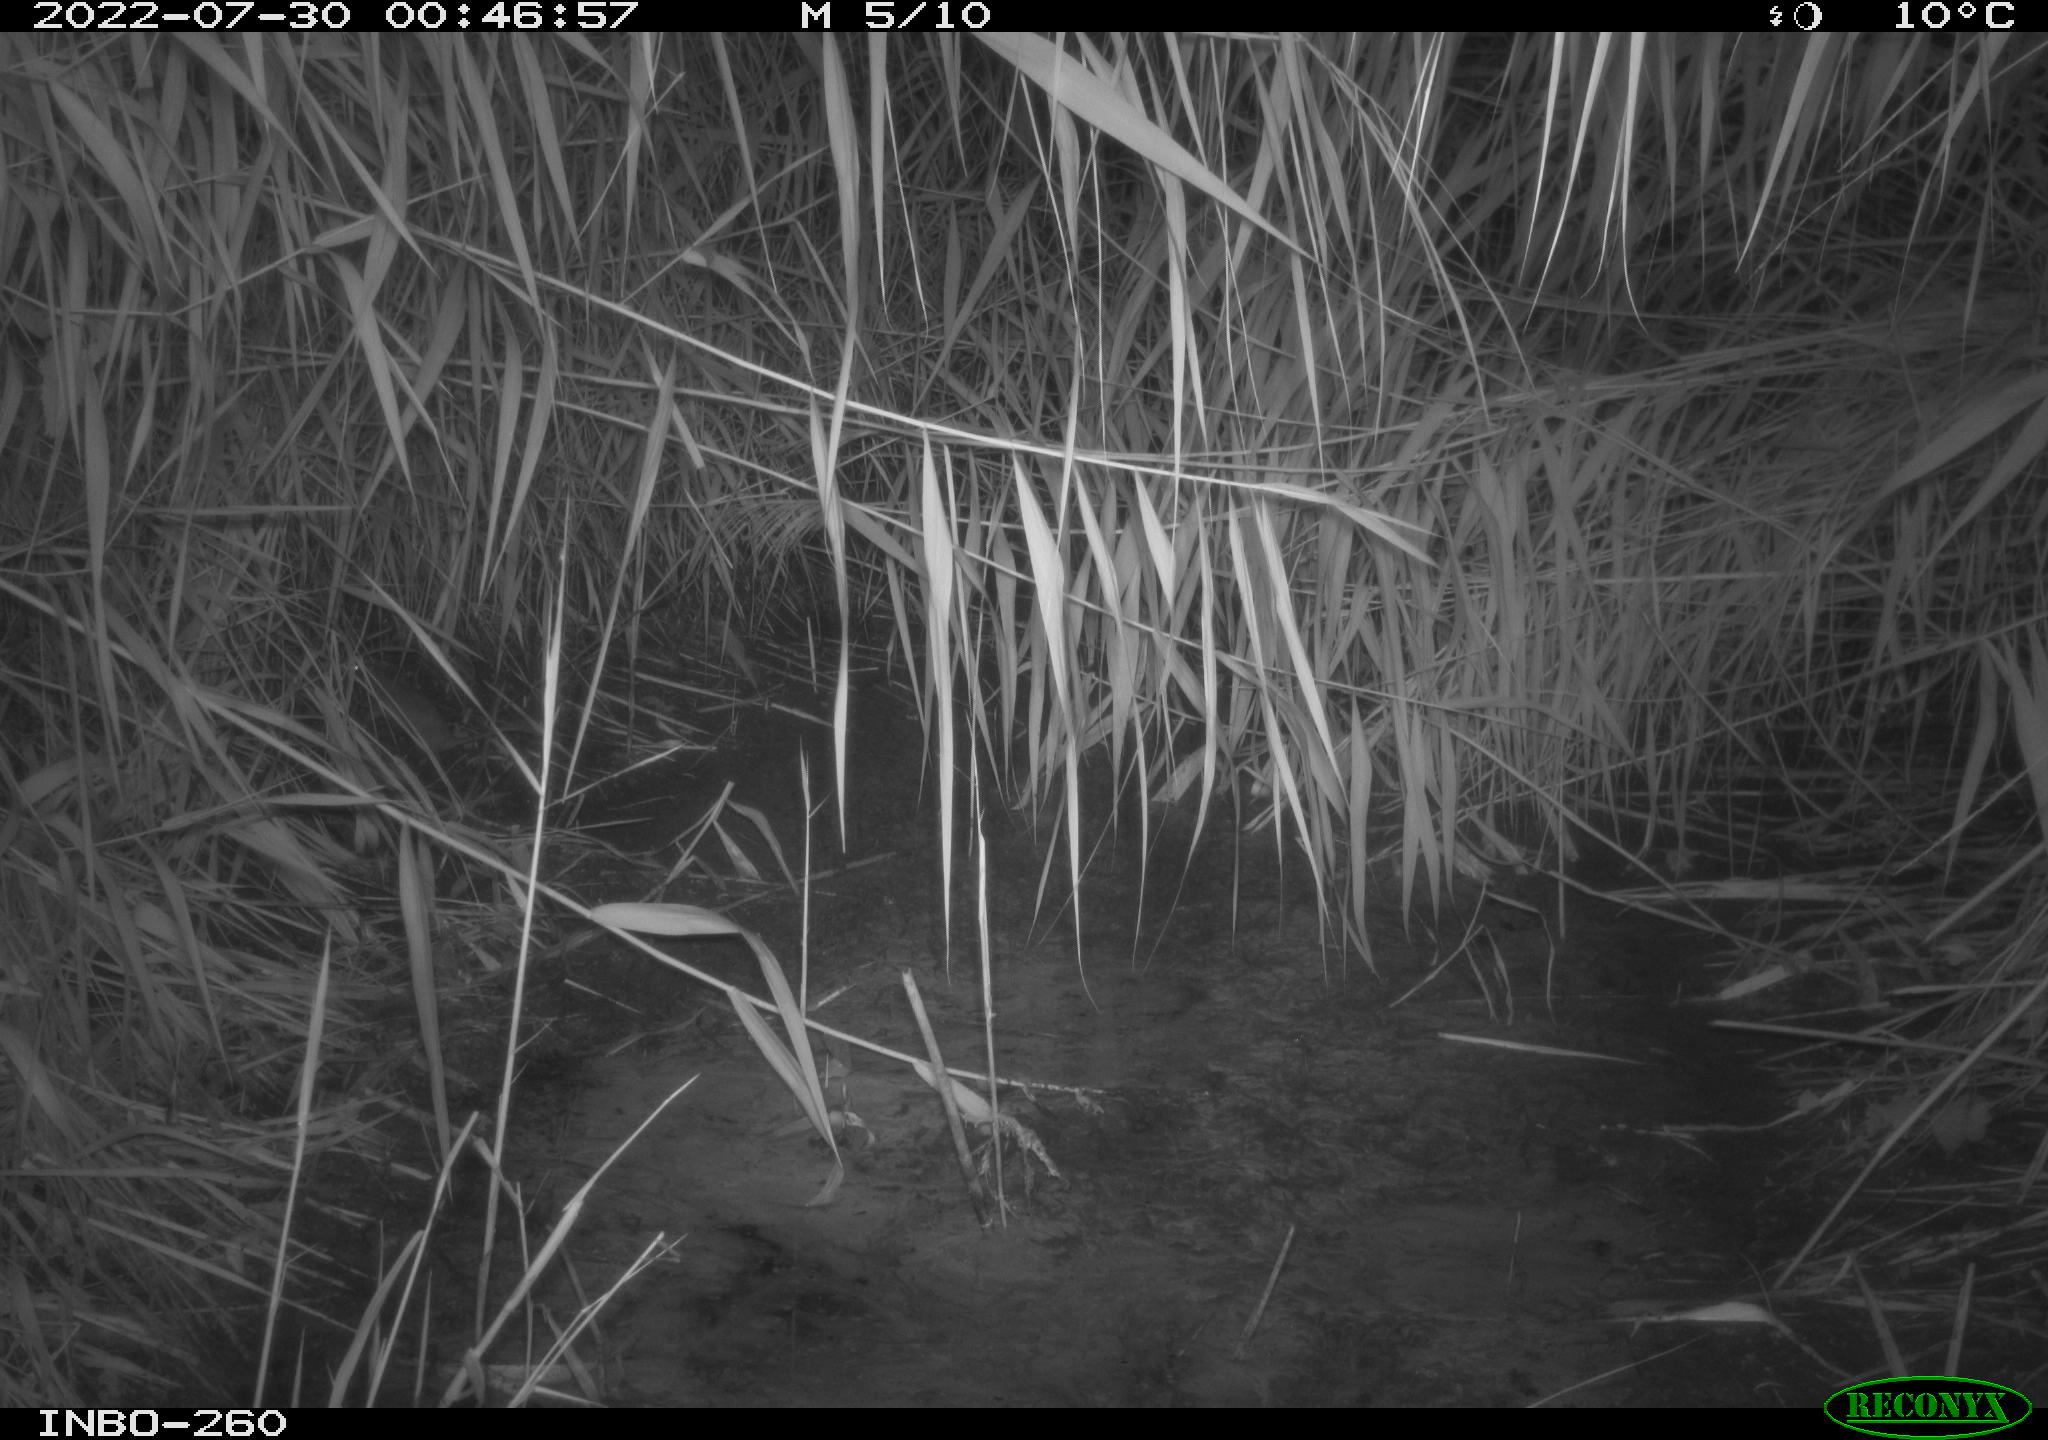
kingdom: Animalia
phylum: Chordata
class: Mammalia
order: Rodentia
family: Muridae
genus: Rattus
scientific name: Rattus norvegicus
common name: Brown rat
